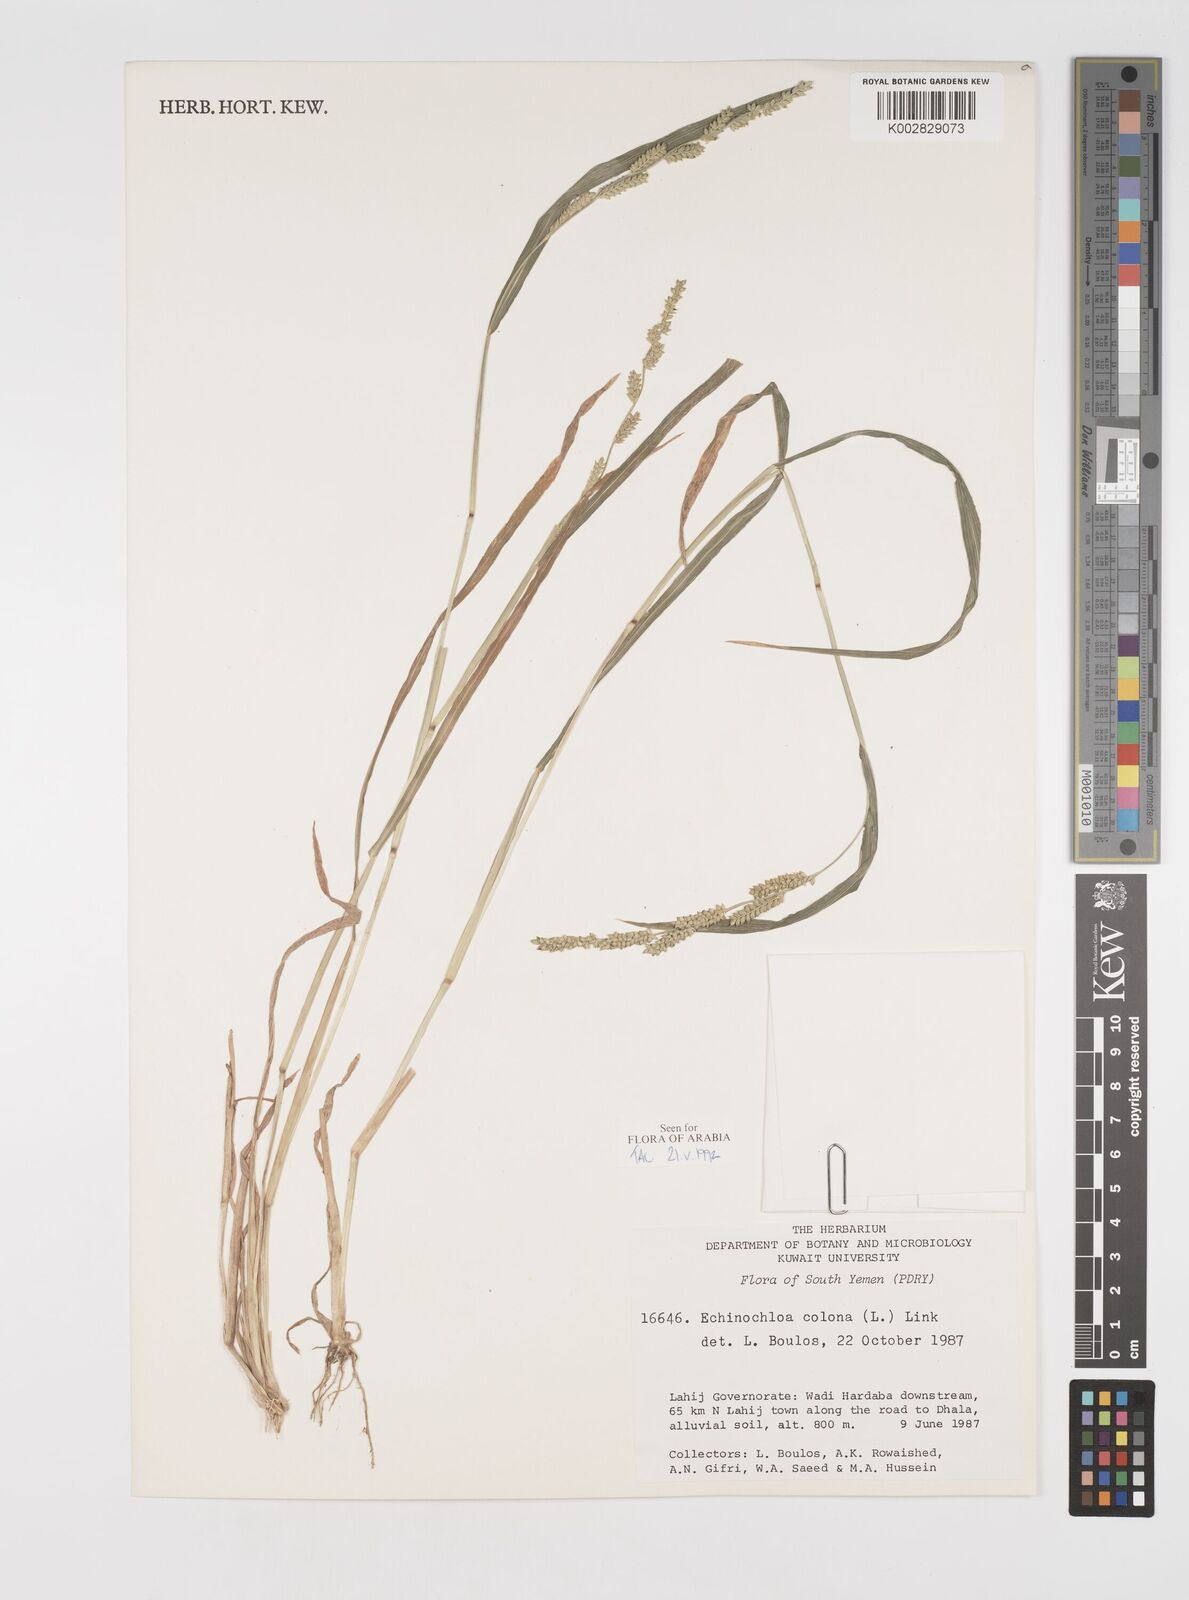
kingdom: Plantae
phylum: Tracheophyta
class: Liliopsida
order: Poales
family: Poaceae
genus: Echinochloa
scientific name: Echinochloa colonum
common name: Jungle rice
